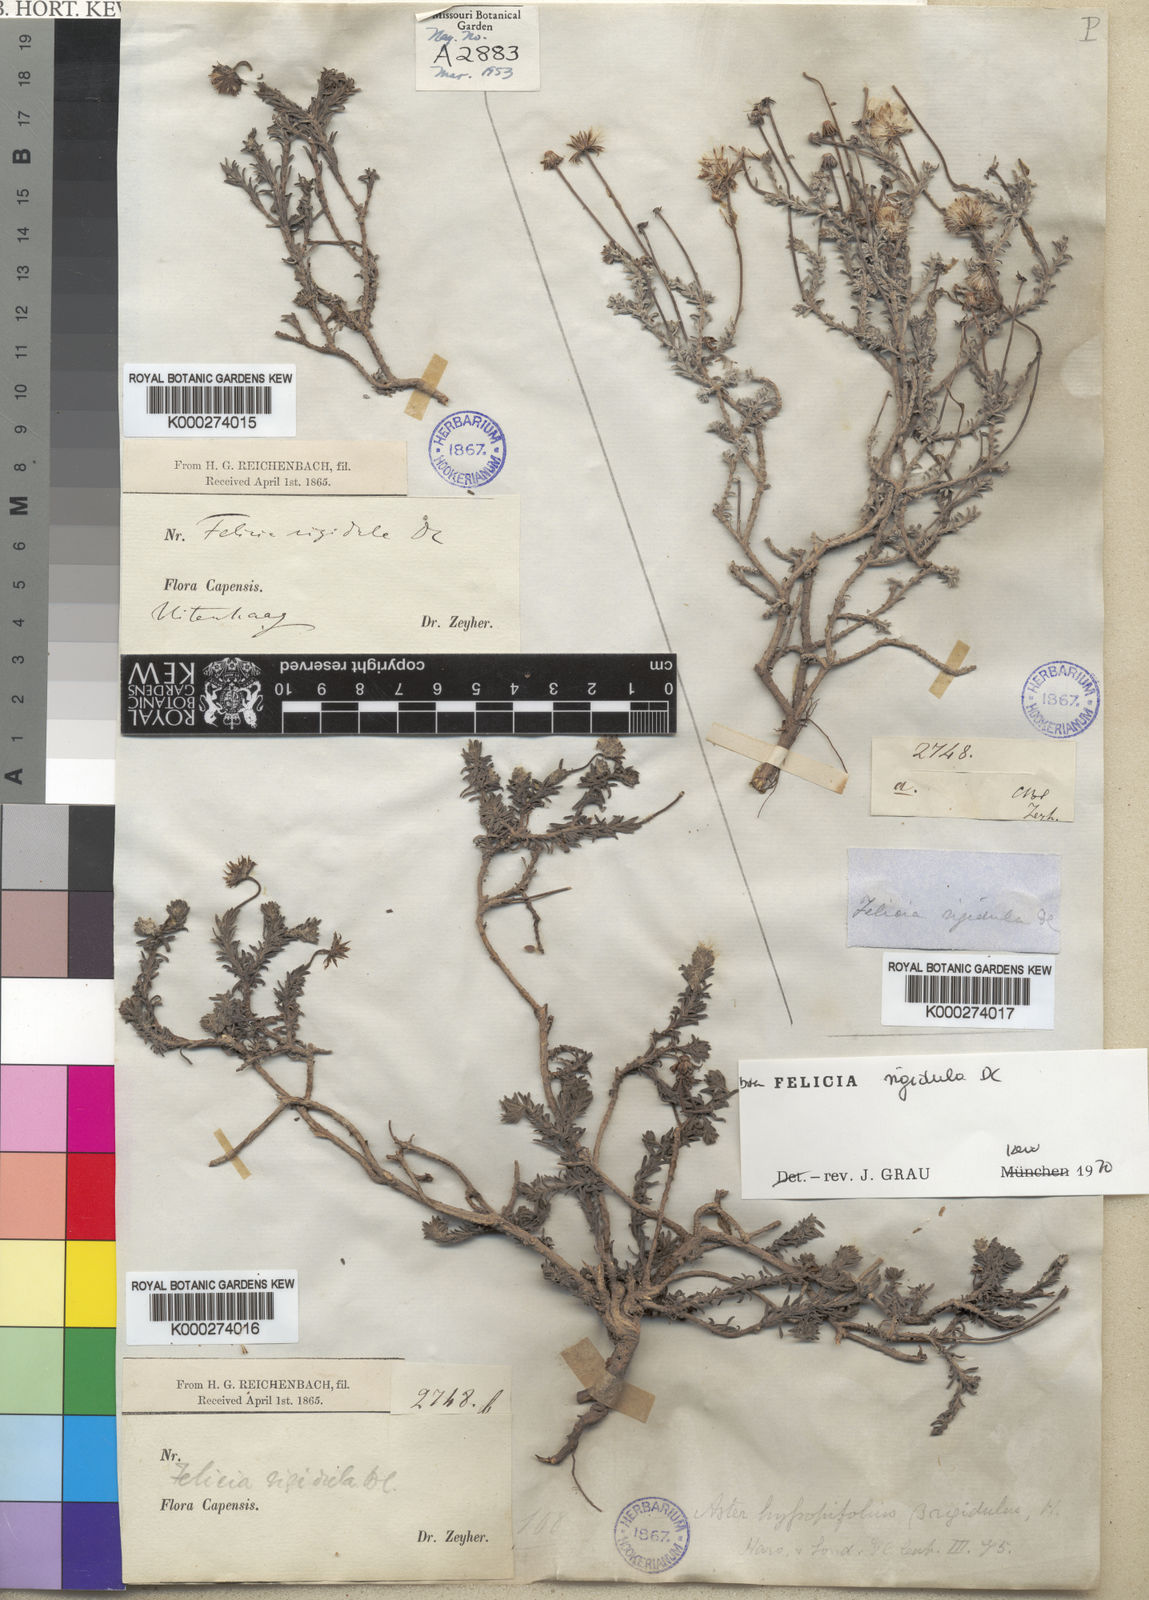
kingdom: Plantae
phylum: Tracheophyta
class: Magnoliopsida
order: Asterales
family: Asteraceae
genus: Chrysocoma
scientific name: Chrysocoma rigidula
